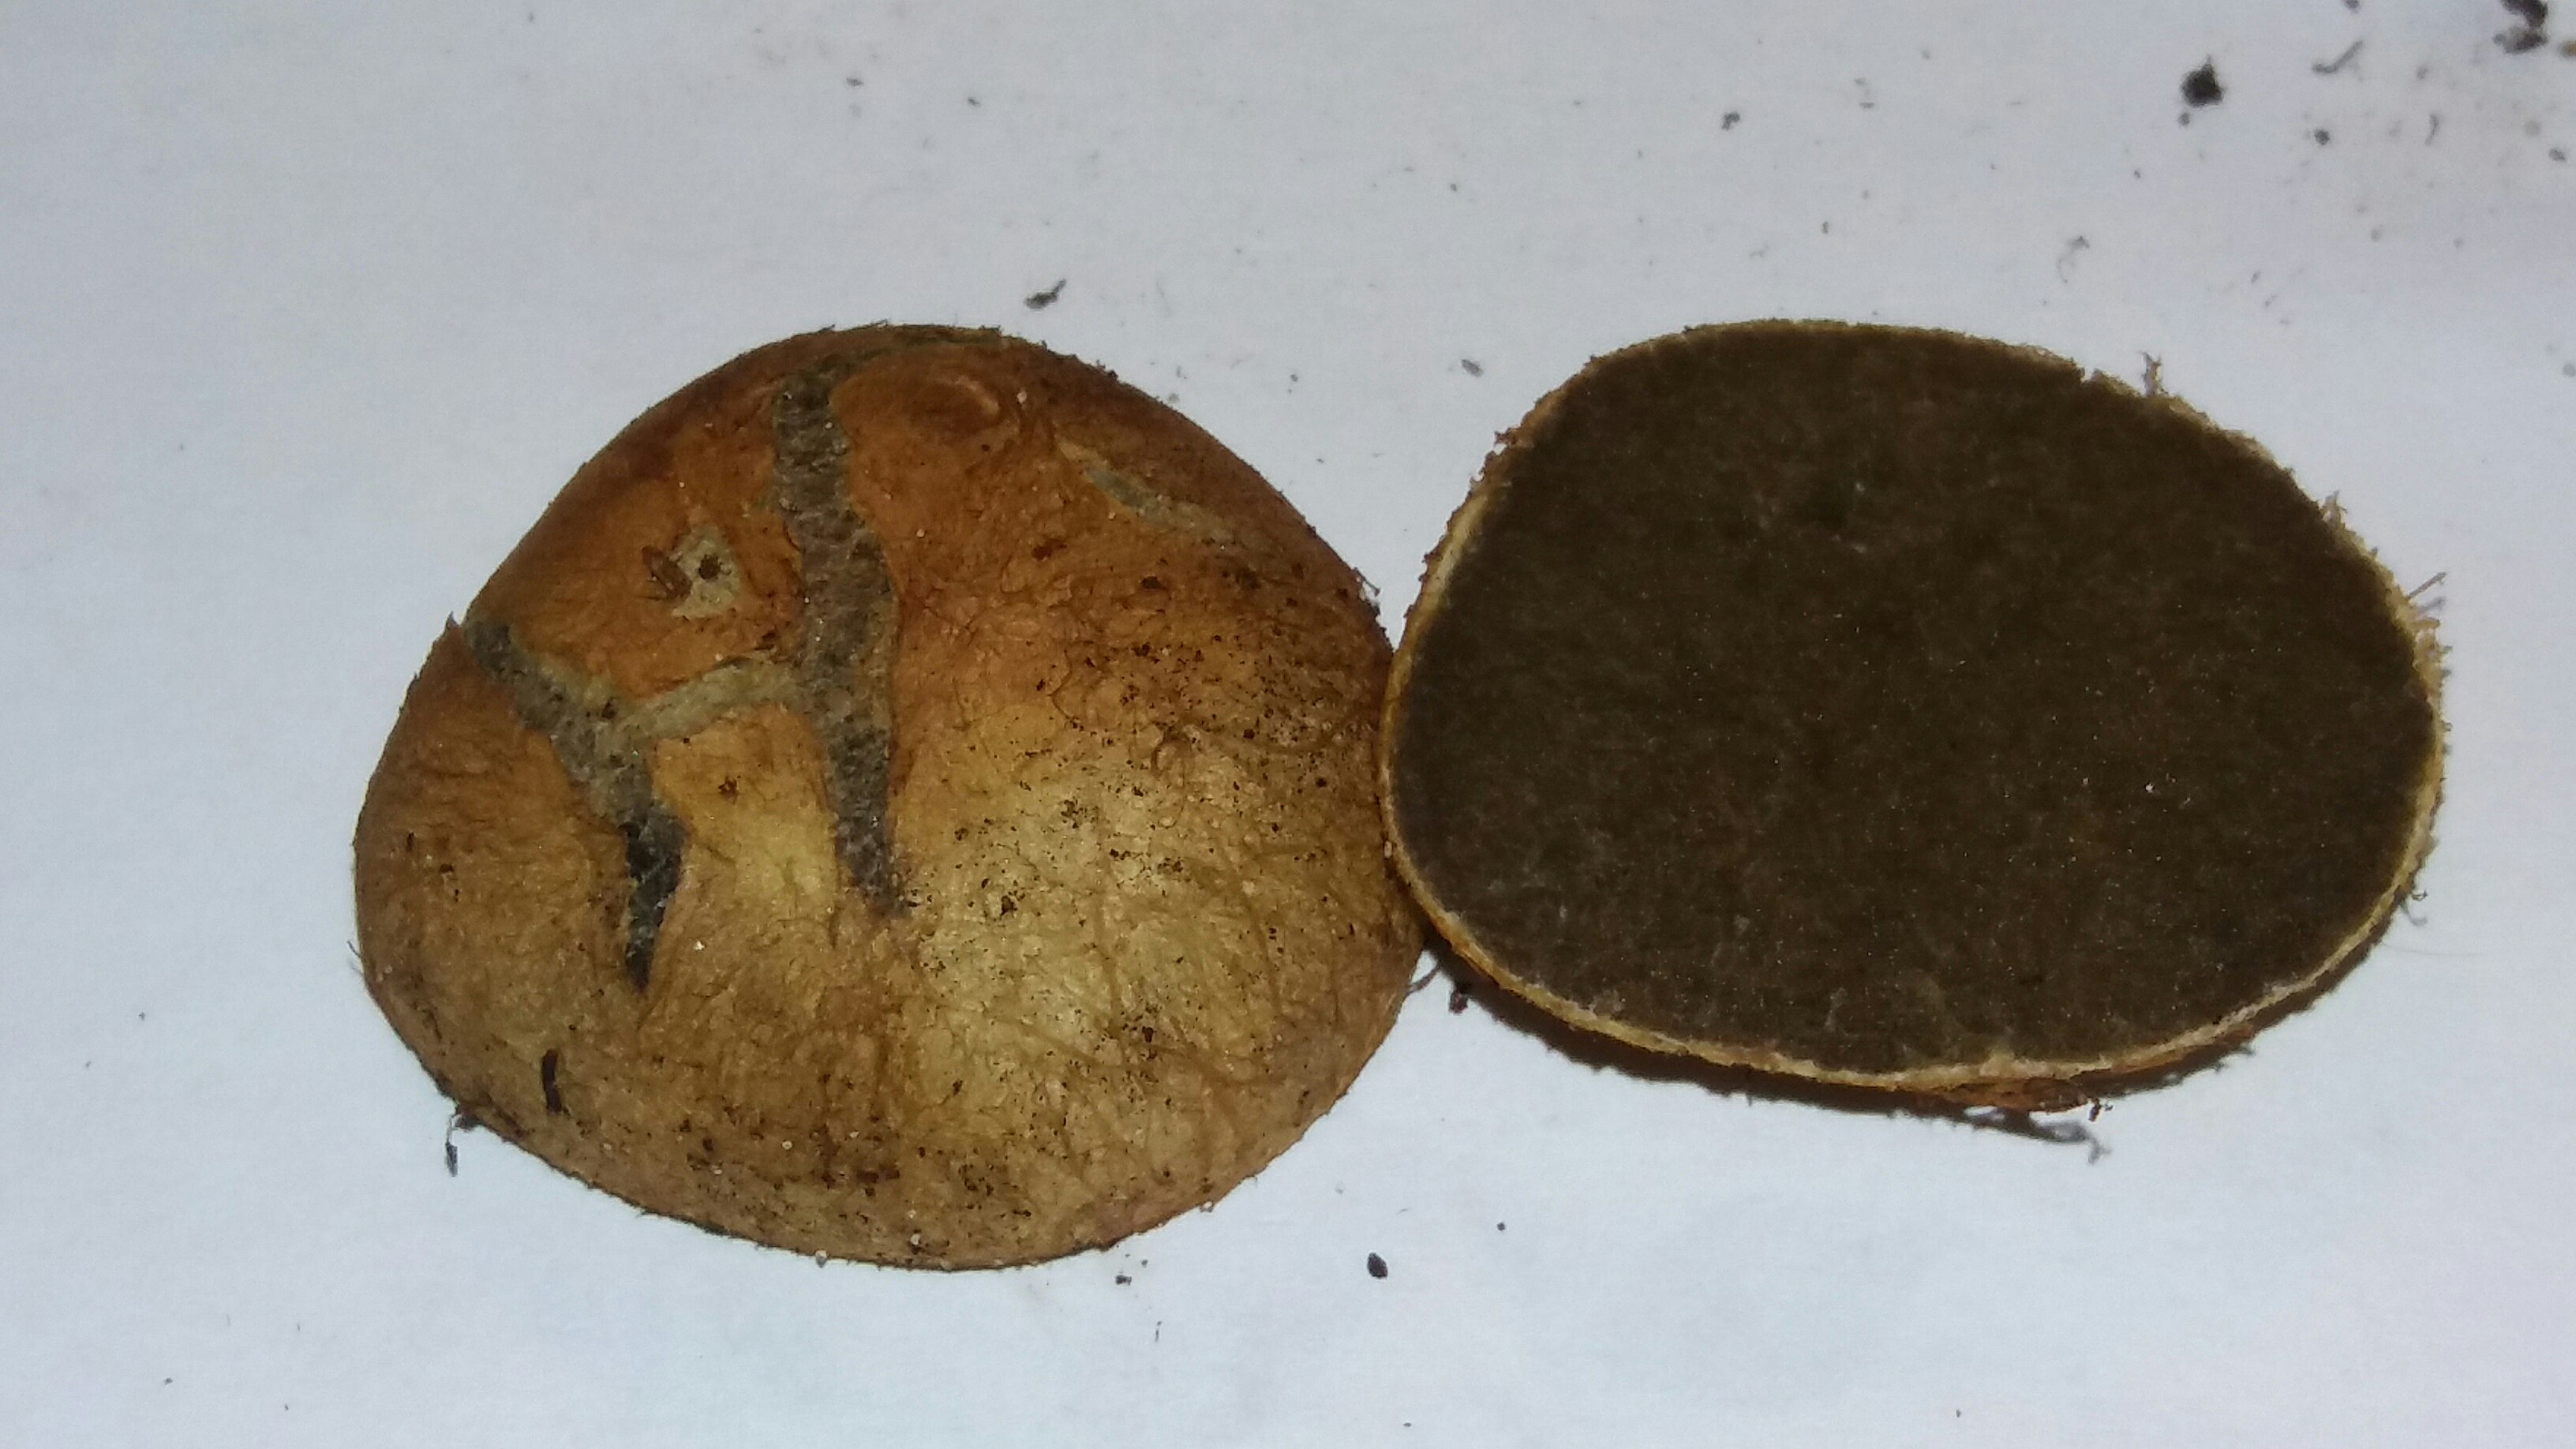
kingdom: Fungi
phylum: Basidiomycota
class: Agaricomycetes
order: Boletales
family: Rhizopogonaceae
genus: Rhizopogon
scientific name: Rhizopogon obtextus
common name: gul skægtrøffel
